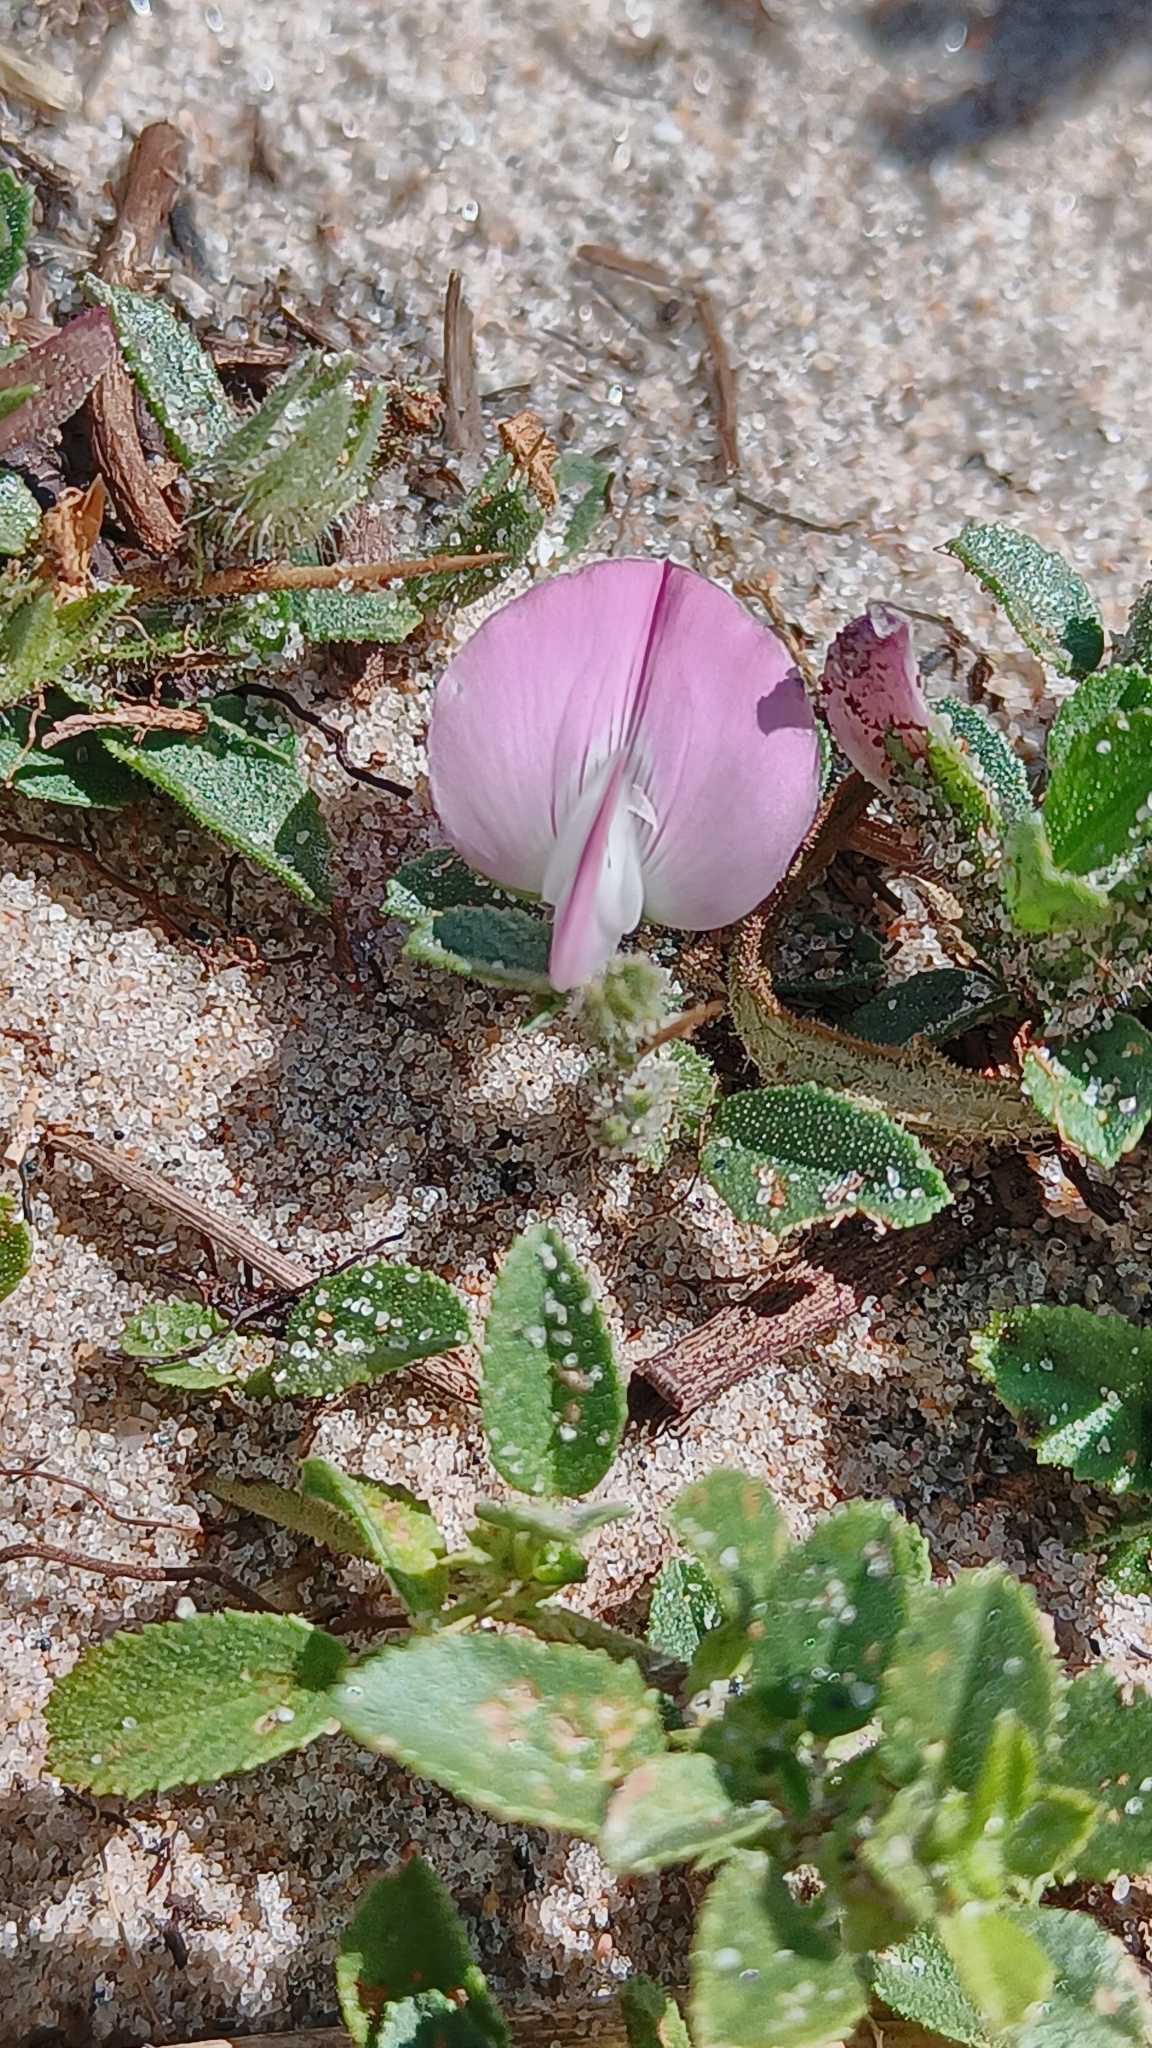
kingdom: Plantae
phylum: Tracheophyta
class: Magnoliopsida
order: Fabales
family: Fabaceae
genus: Ononis
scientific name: Ononis spinosa
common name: Mark-krageklo
